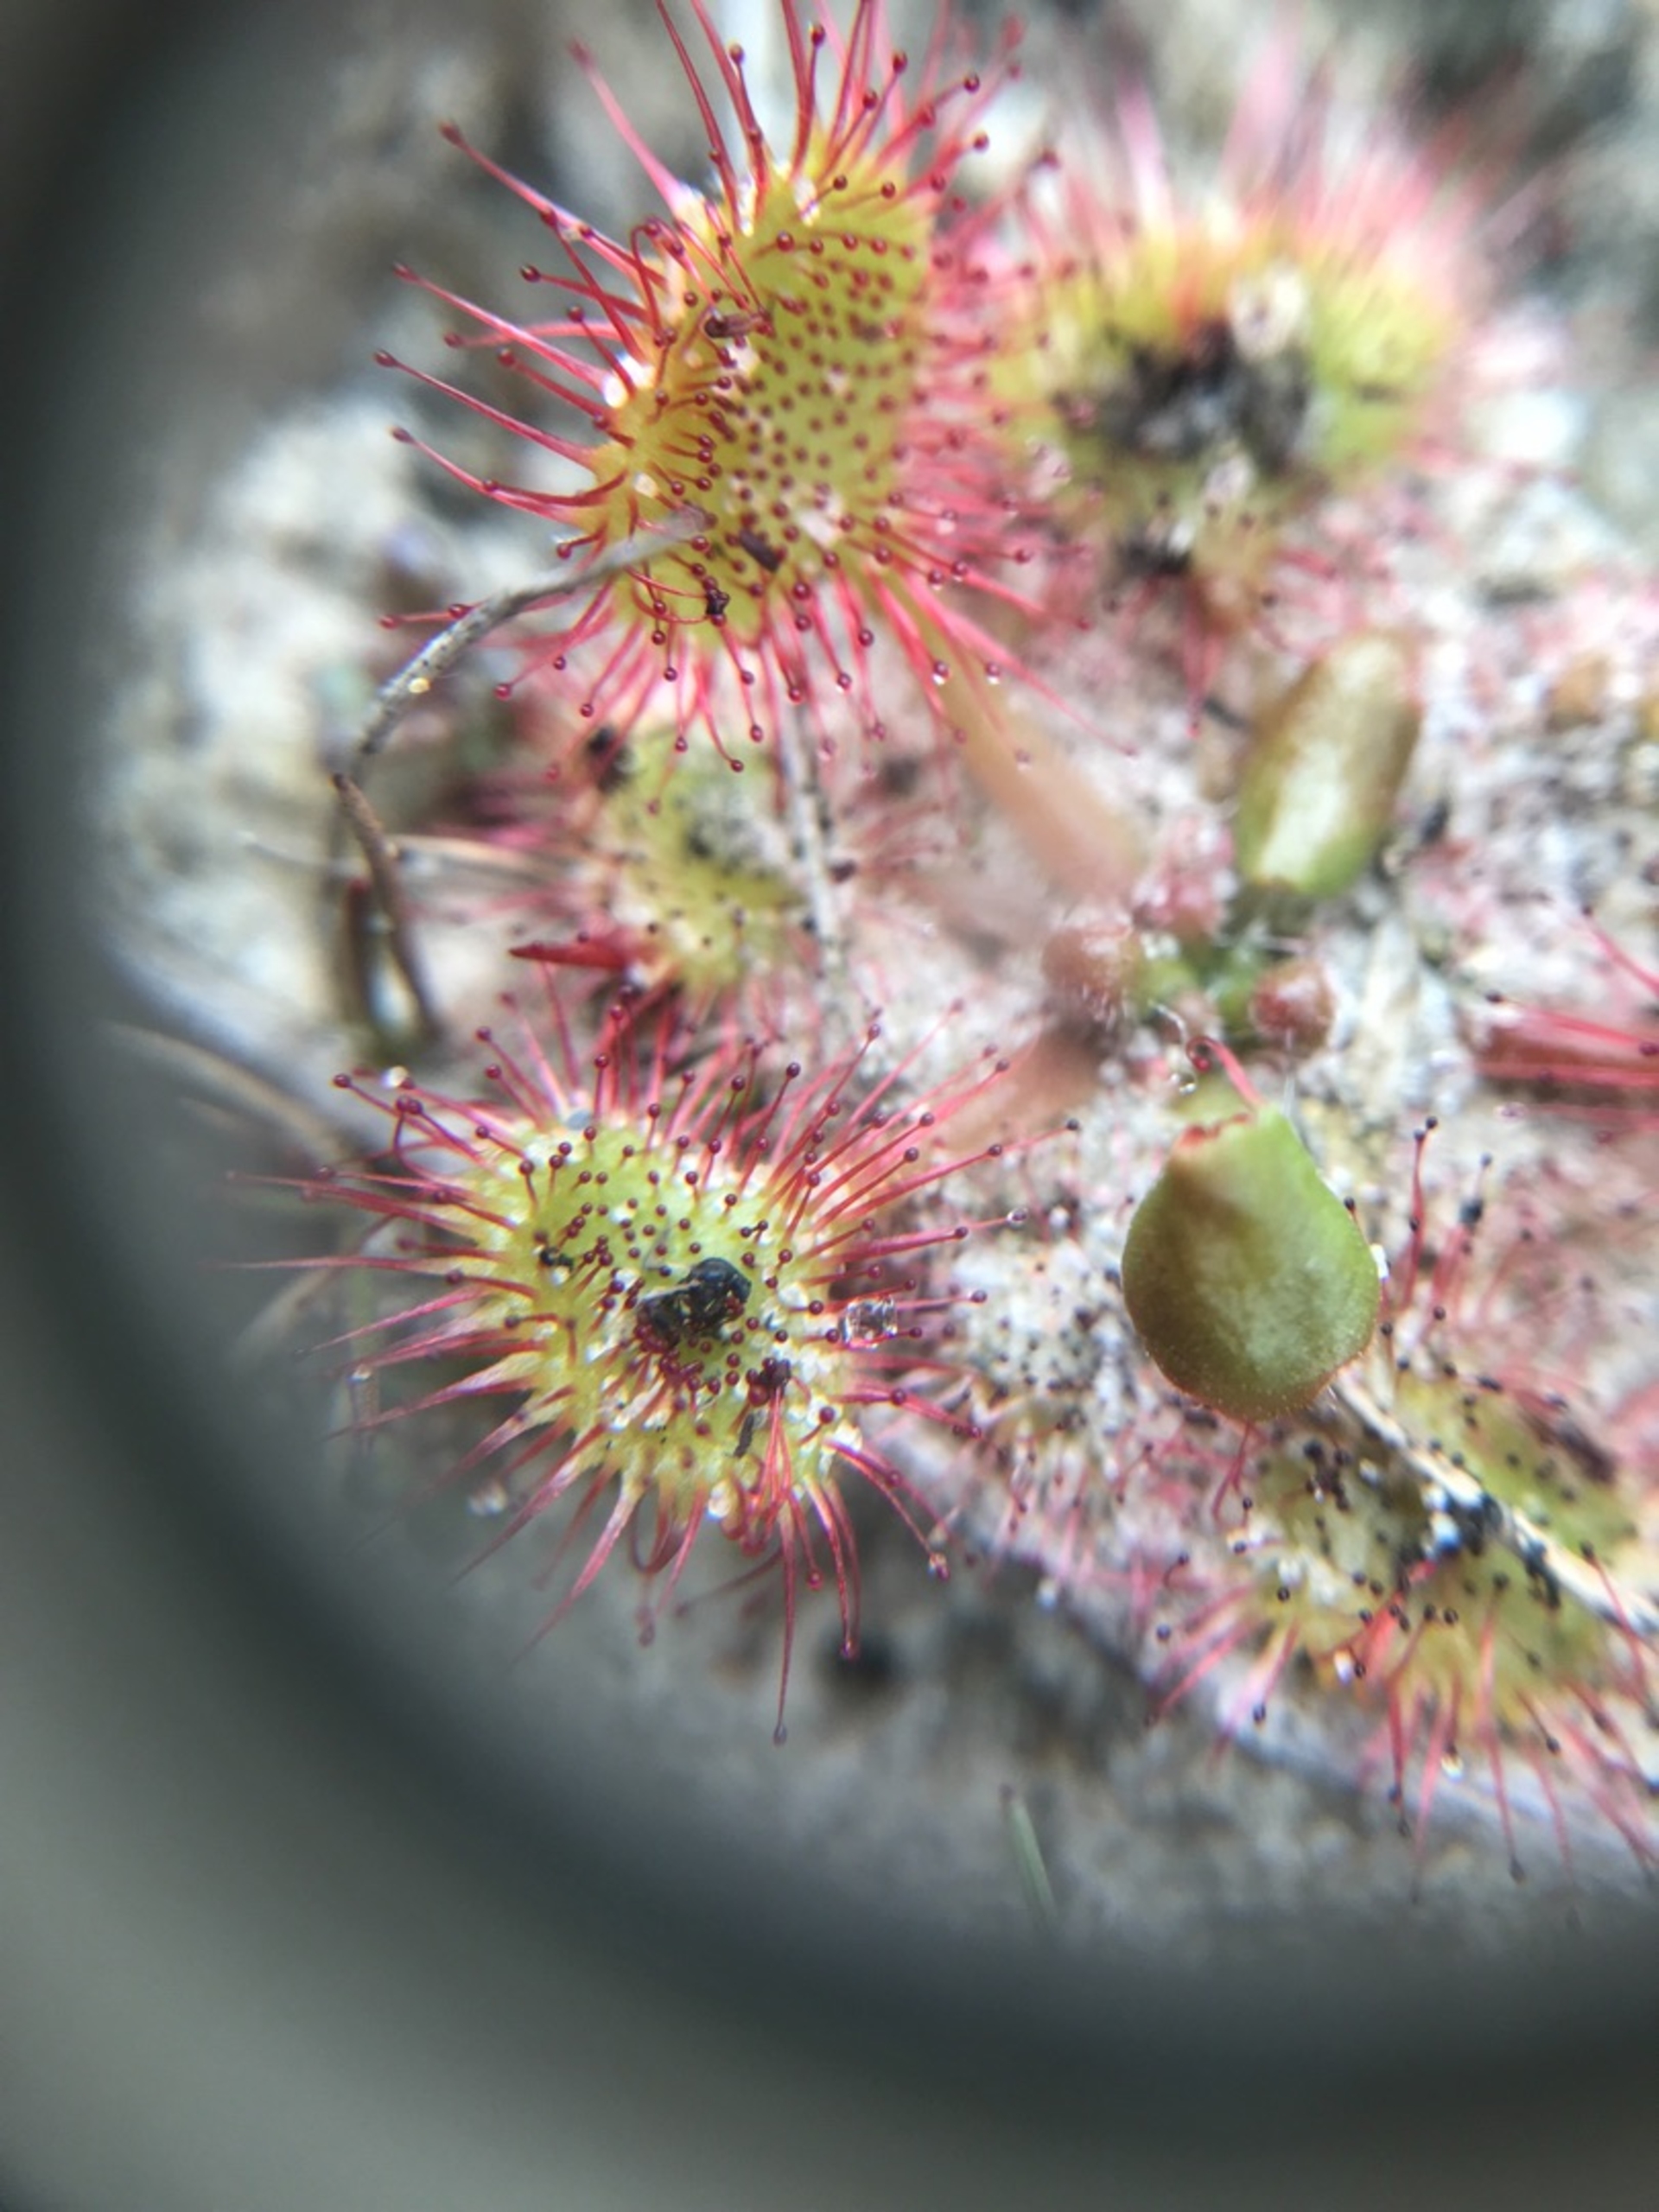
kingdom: Plantae
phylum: Tracheophyta
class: Magnoliopsida
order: Caryophyllales
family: Droseraceae
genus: Drosera
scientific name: Drosera rotundifolia
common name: Rundbladet soldug
